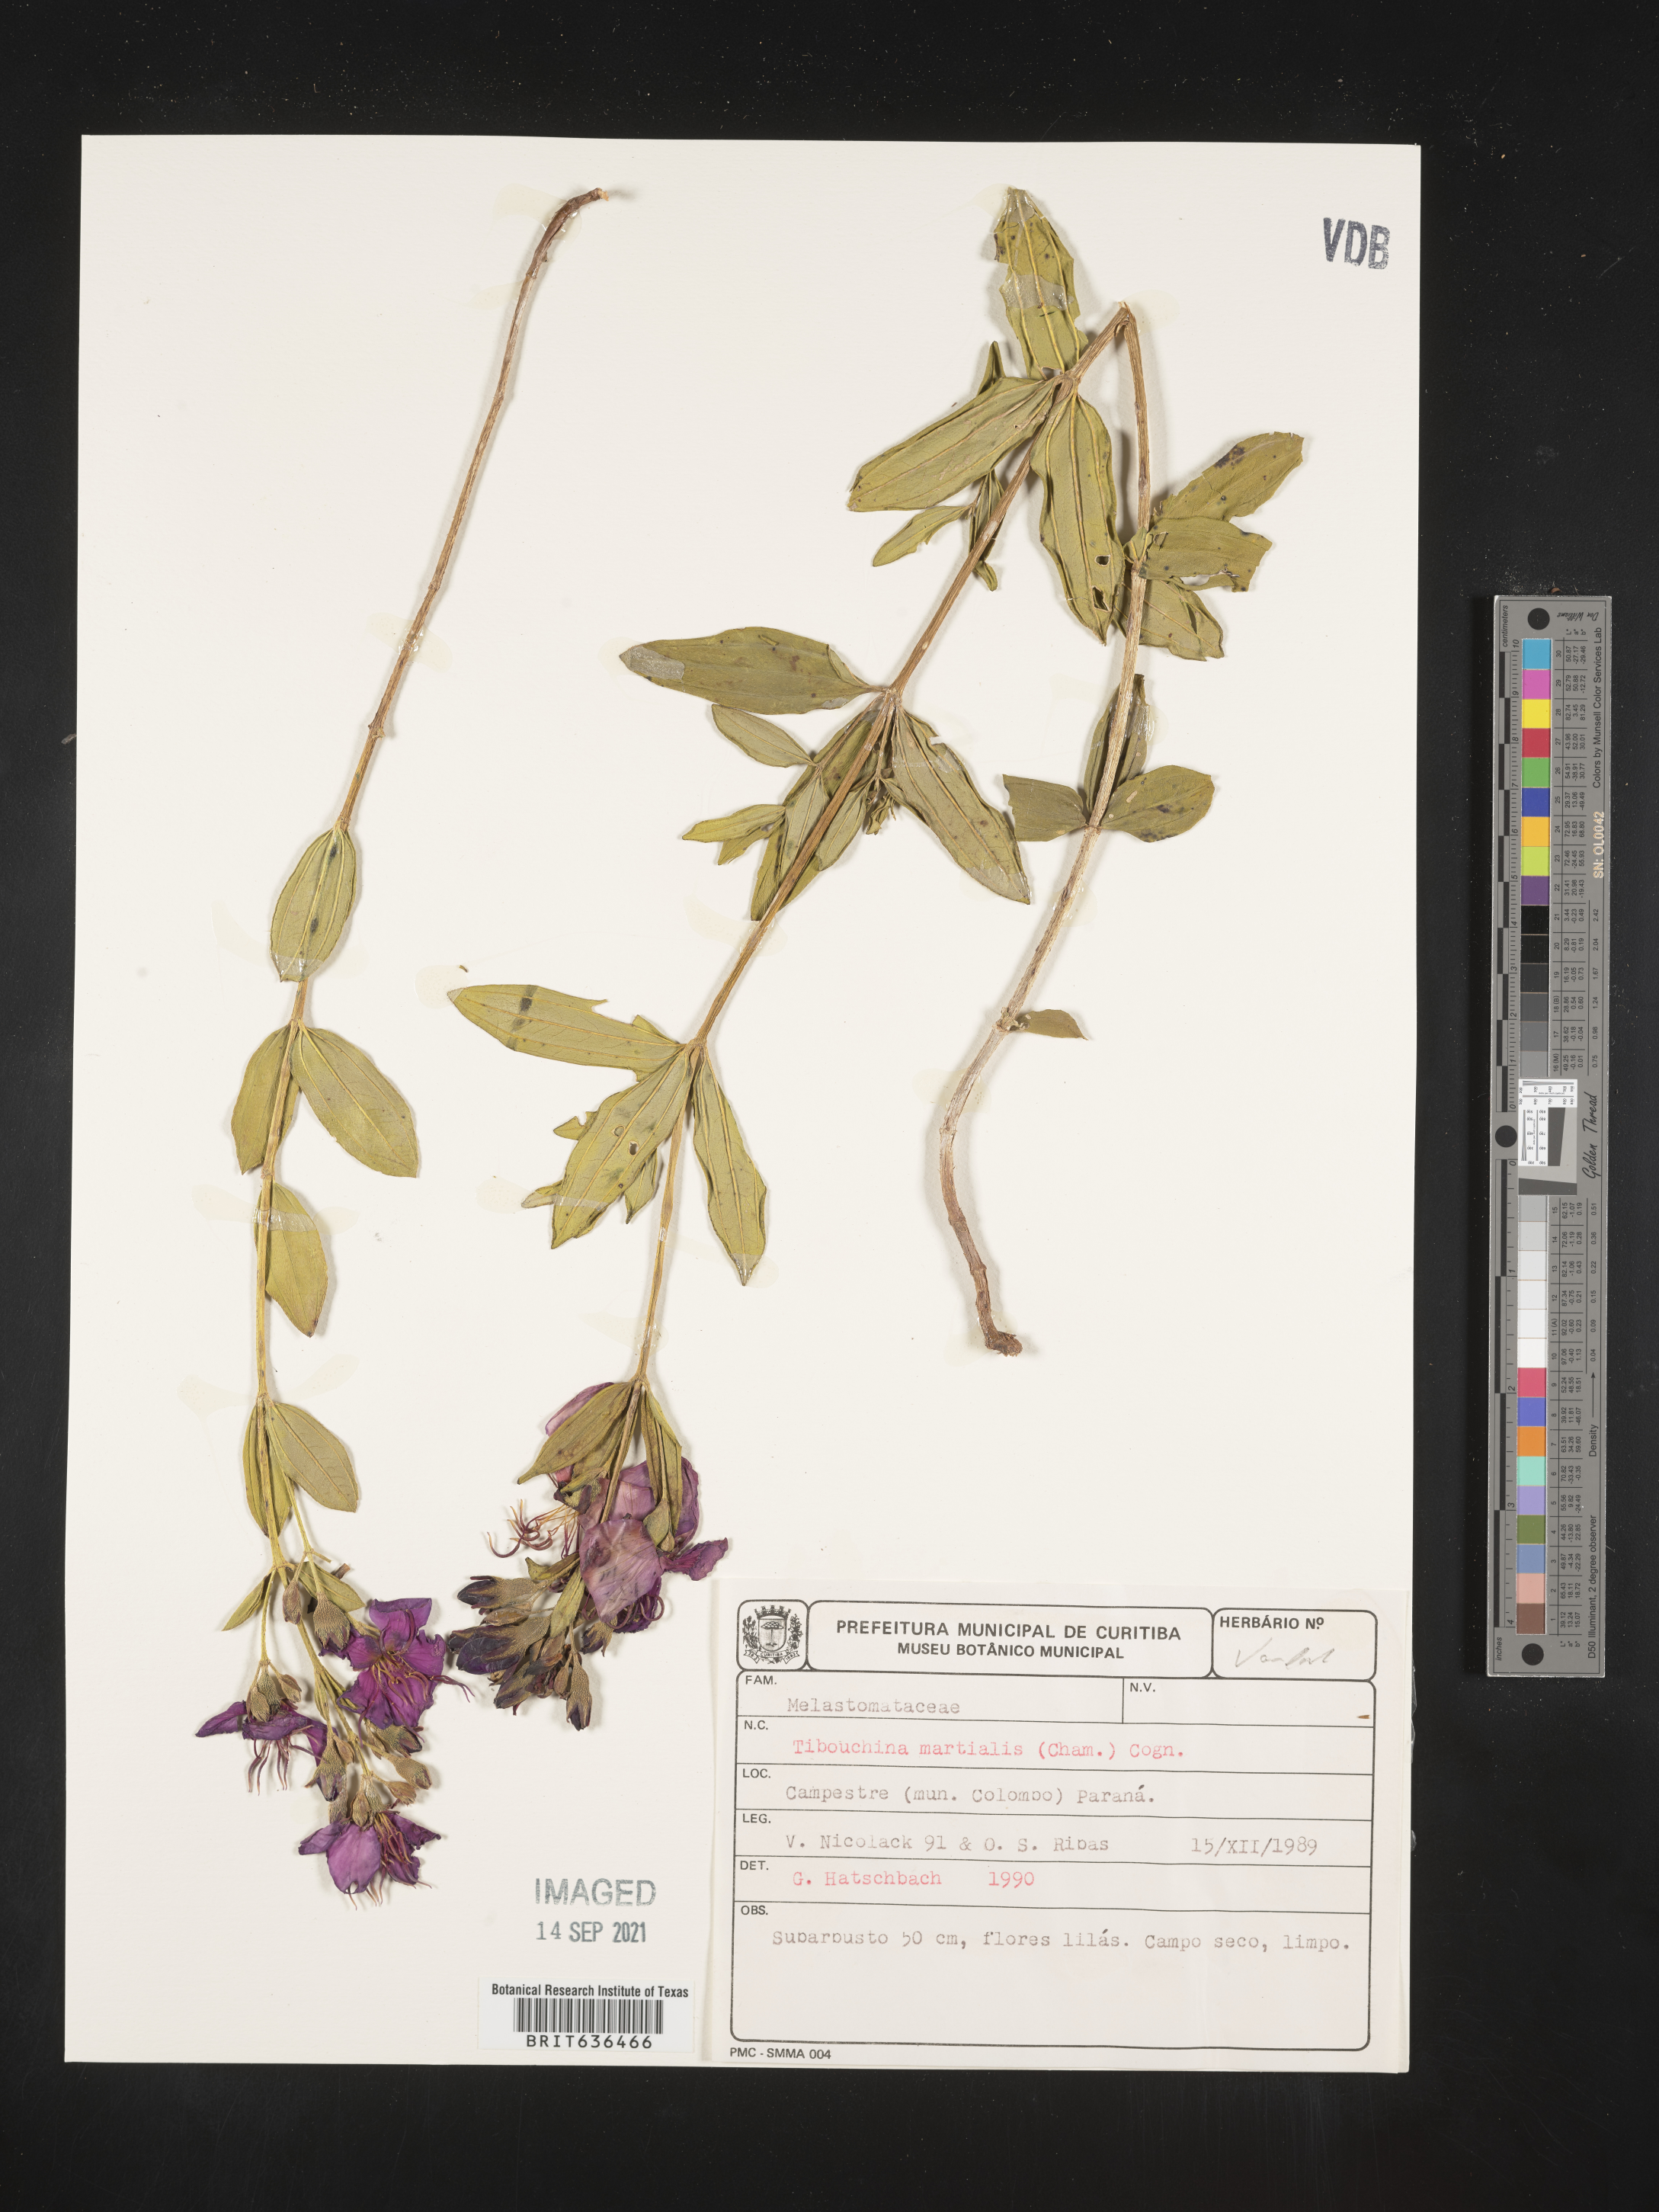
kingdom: Plantae
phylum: Tracheophyta
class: Magnoliopsida
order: Myrtales
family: Melastomataceae
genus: Tibouchina
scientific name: Tibouchina
